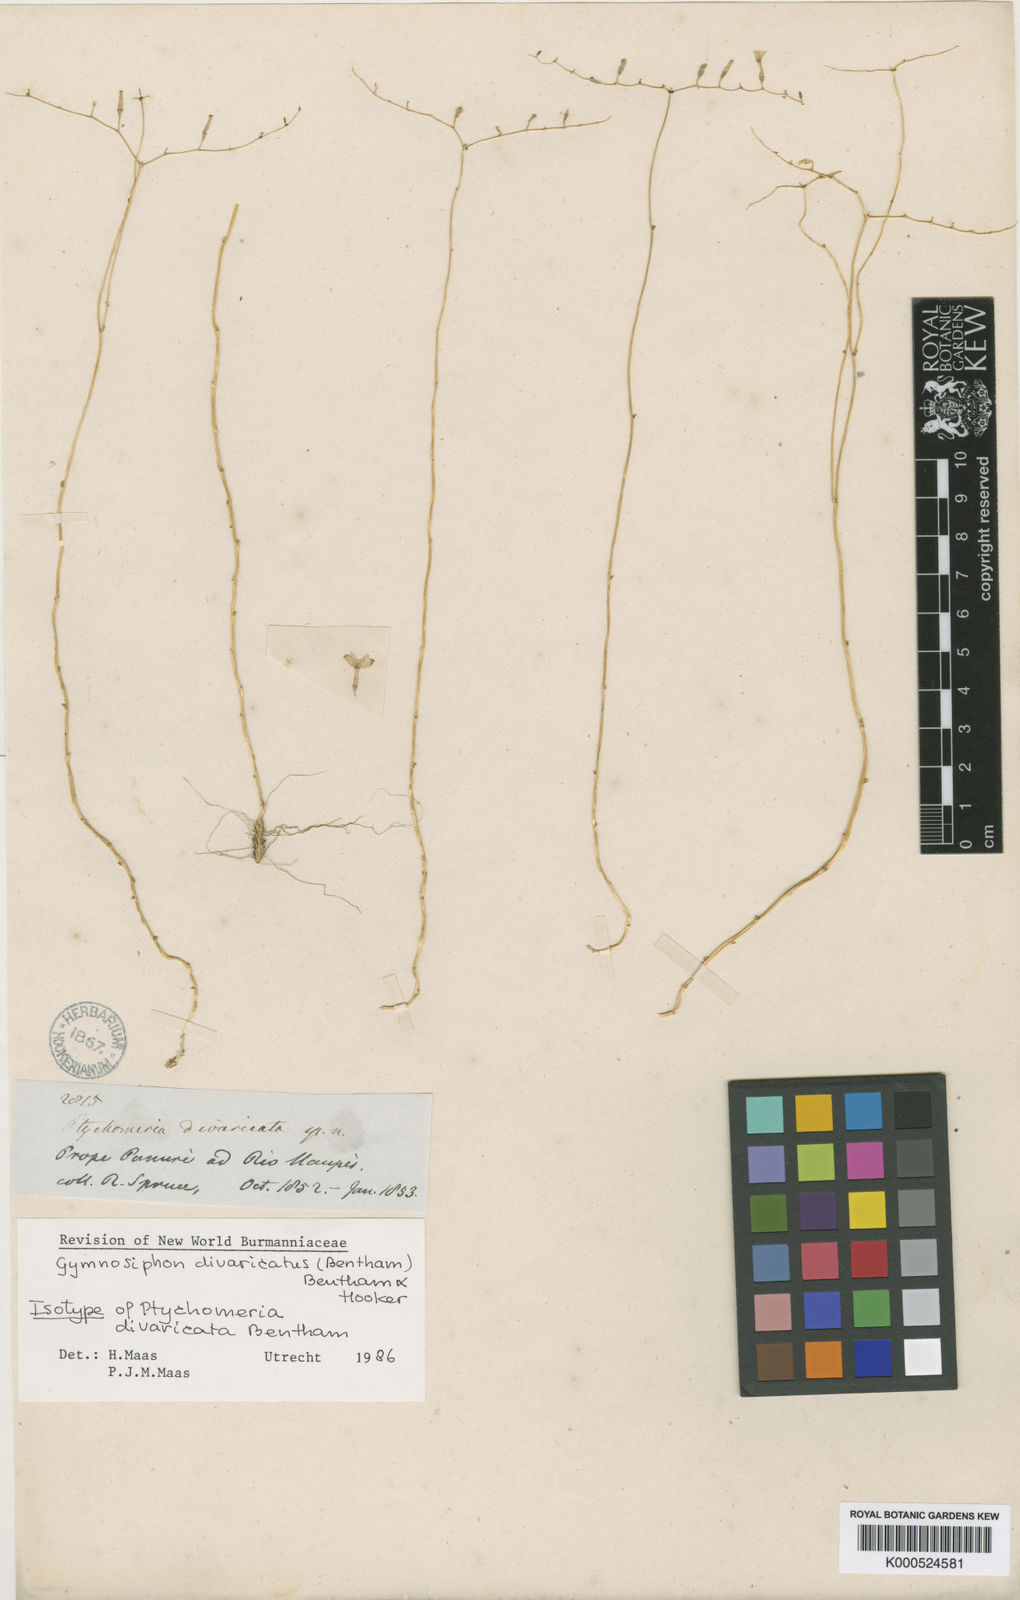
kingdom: Plantae
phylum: Tracheophyta
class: Liliopsida
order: Dioscoreales
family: Burmanniaceae
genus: Gymnosiphon
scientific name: Gymnosiphon divaricatus
